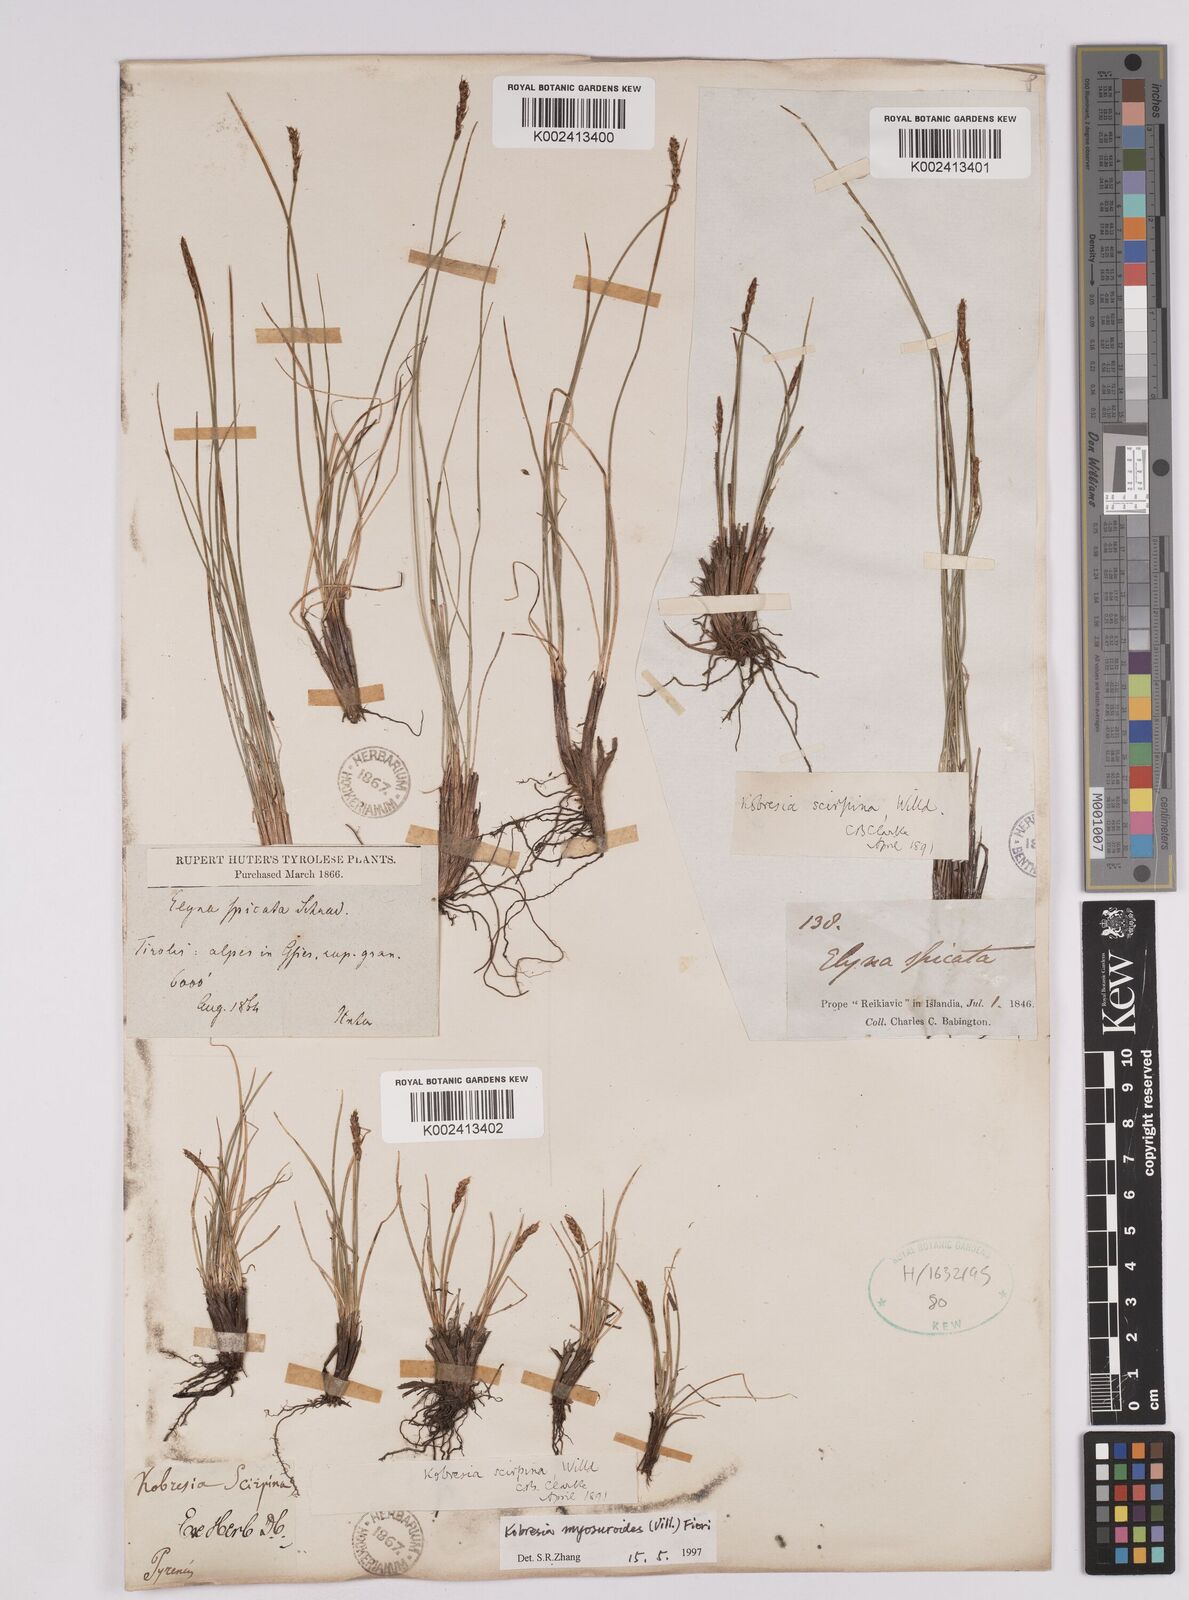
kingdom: Plantae
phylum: Tracheophyta
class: Liliopsida
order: Poales
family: Cyperaceae
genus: Carex
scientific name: Carex myosuroides
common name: Bellard's bog sedge
